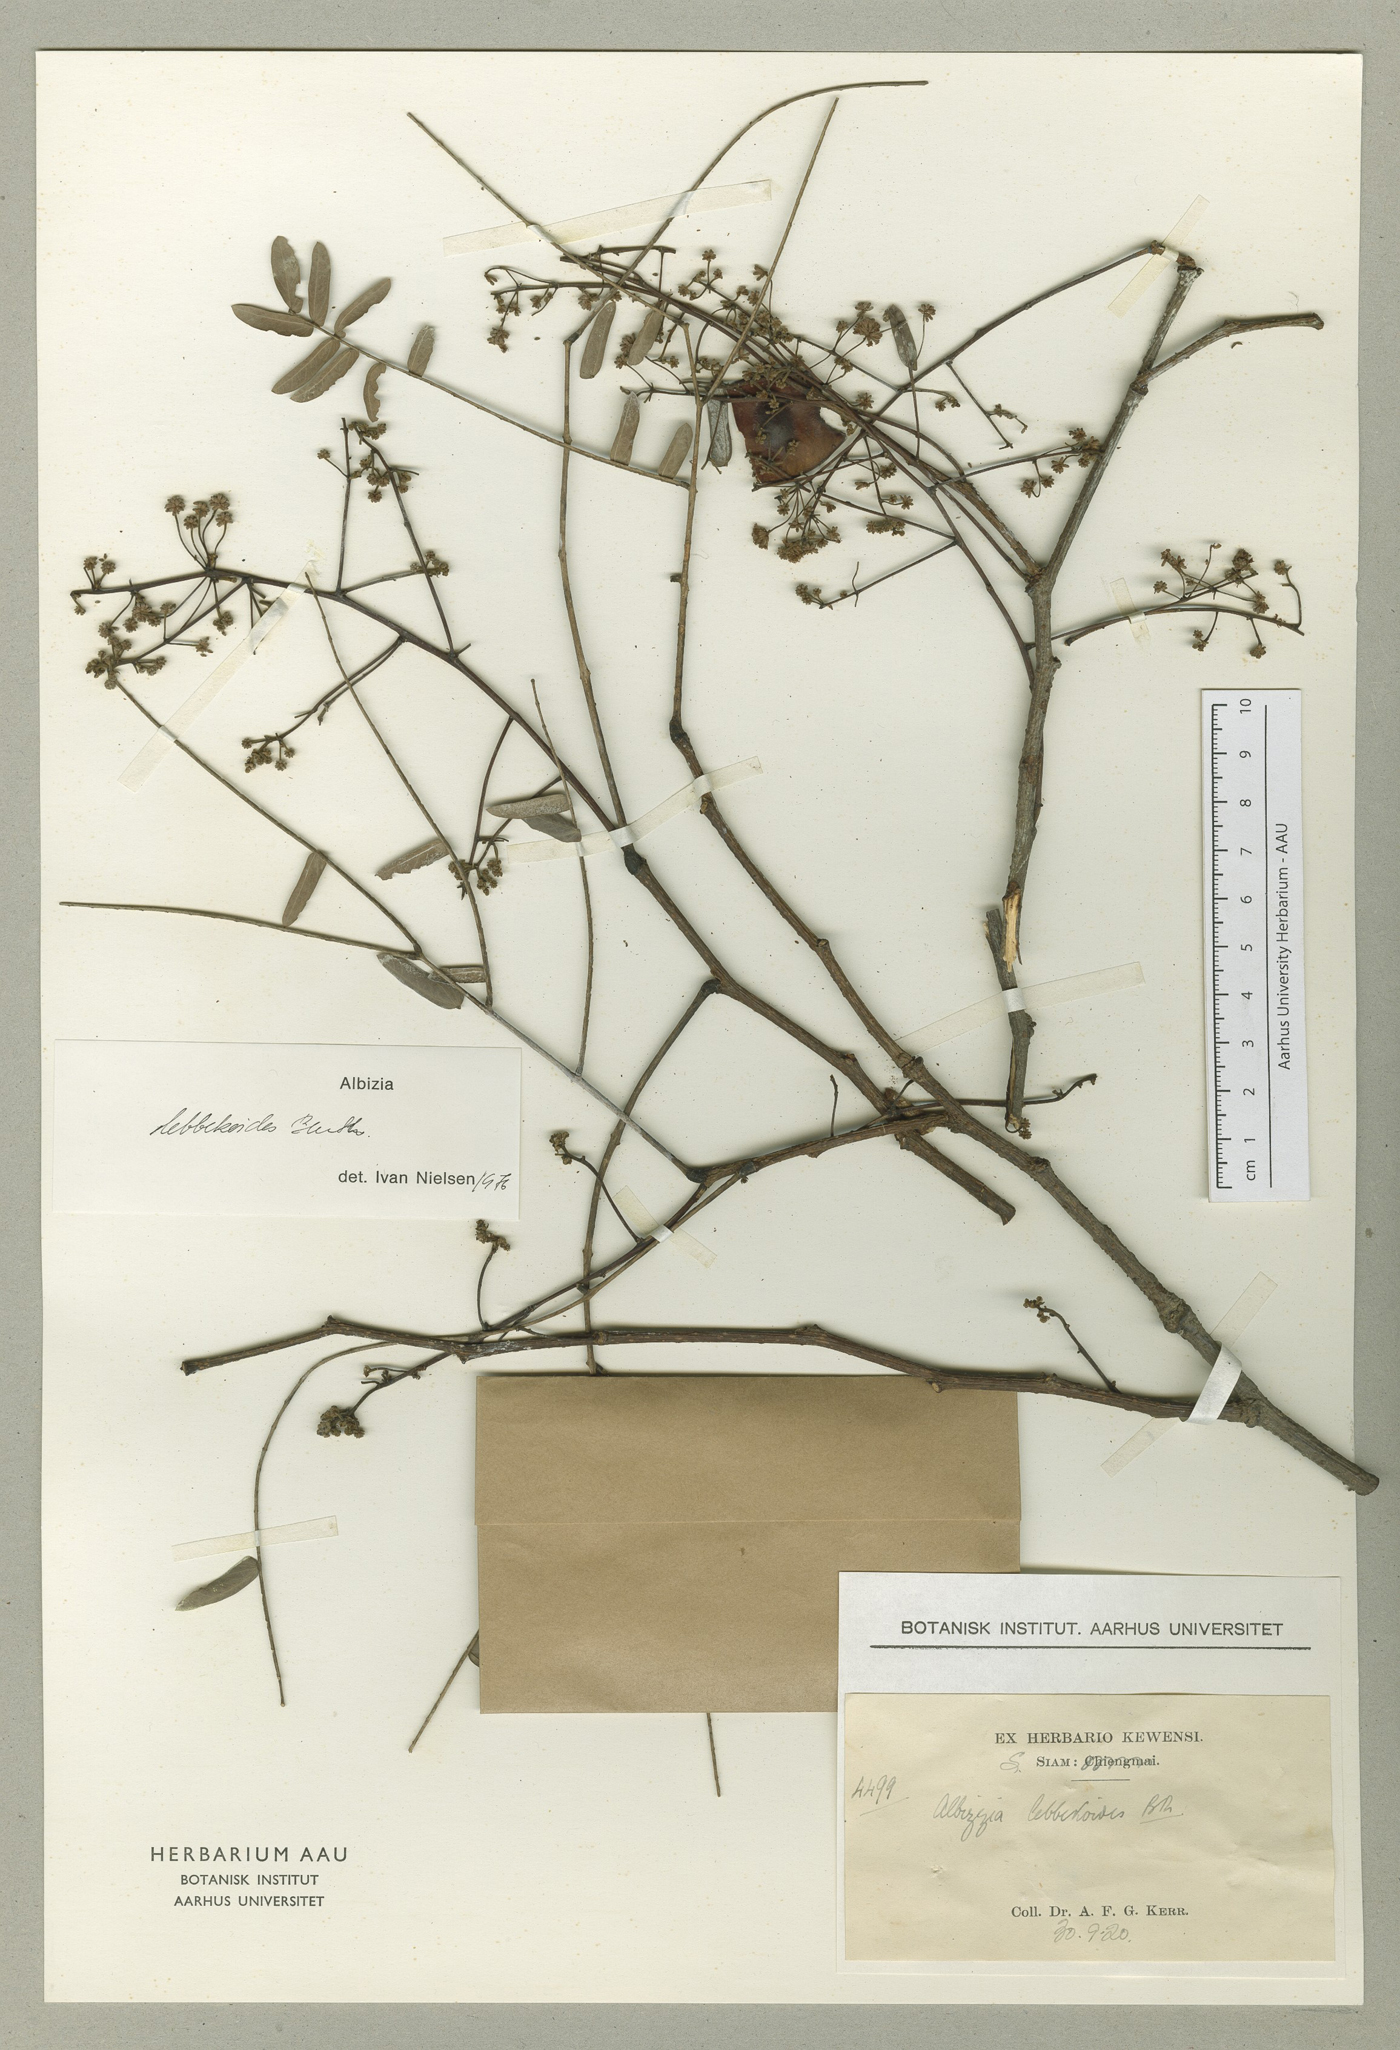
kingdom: Plantae
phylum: Tracheophyta
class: Magnoliopsida
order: Fabales
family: Fabaceae
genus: Albizia
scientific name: Albizia lebbekoides
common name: Indian albizia
